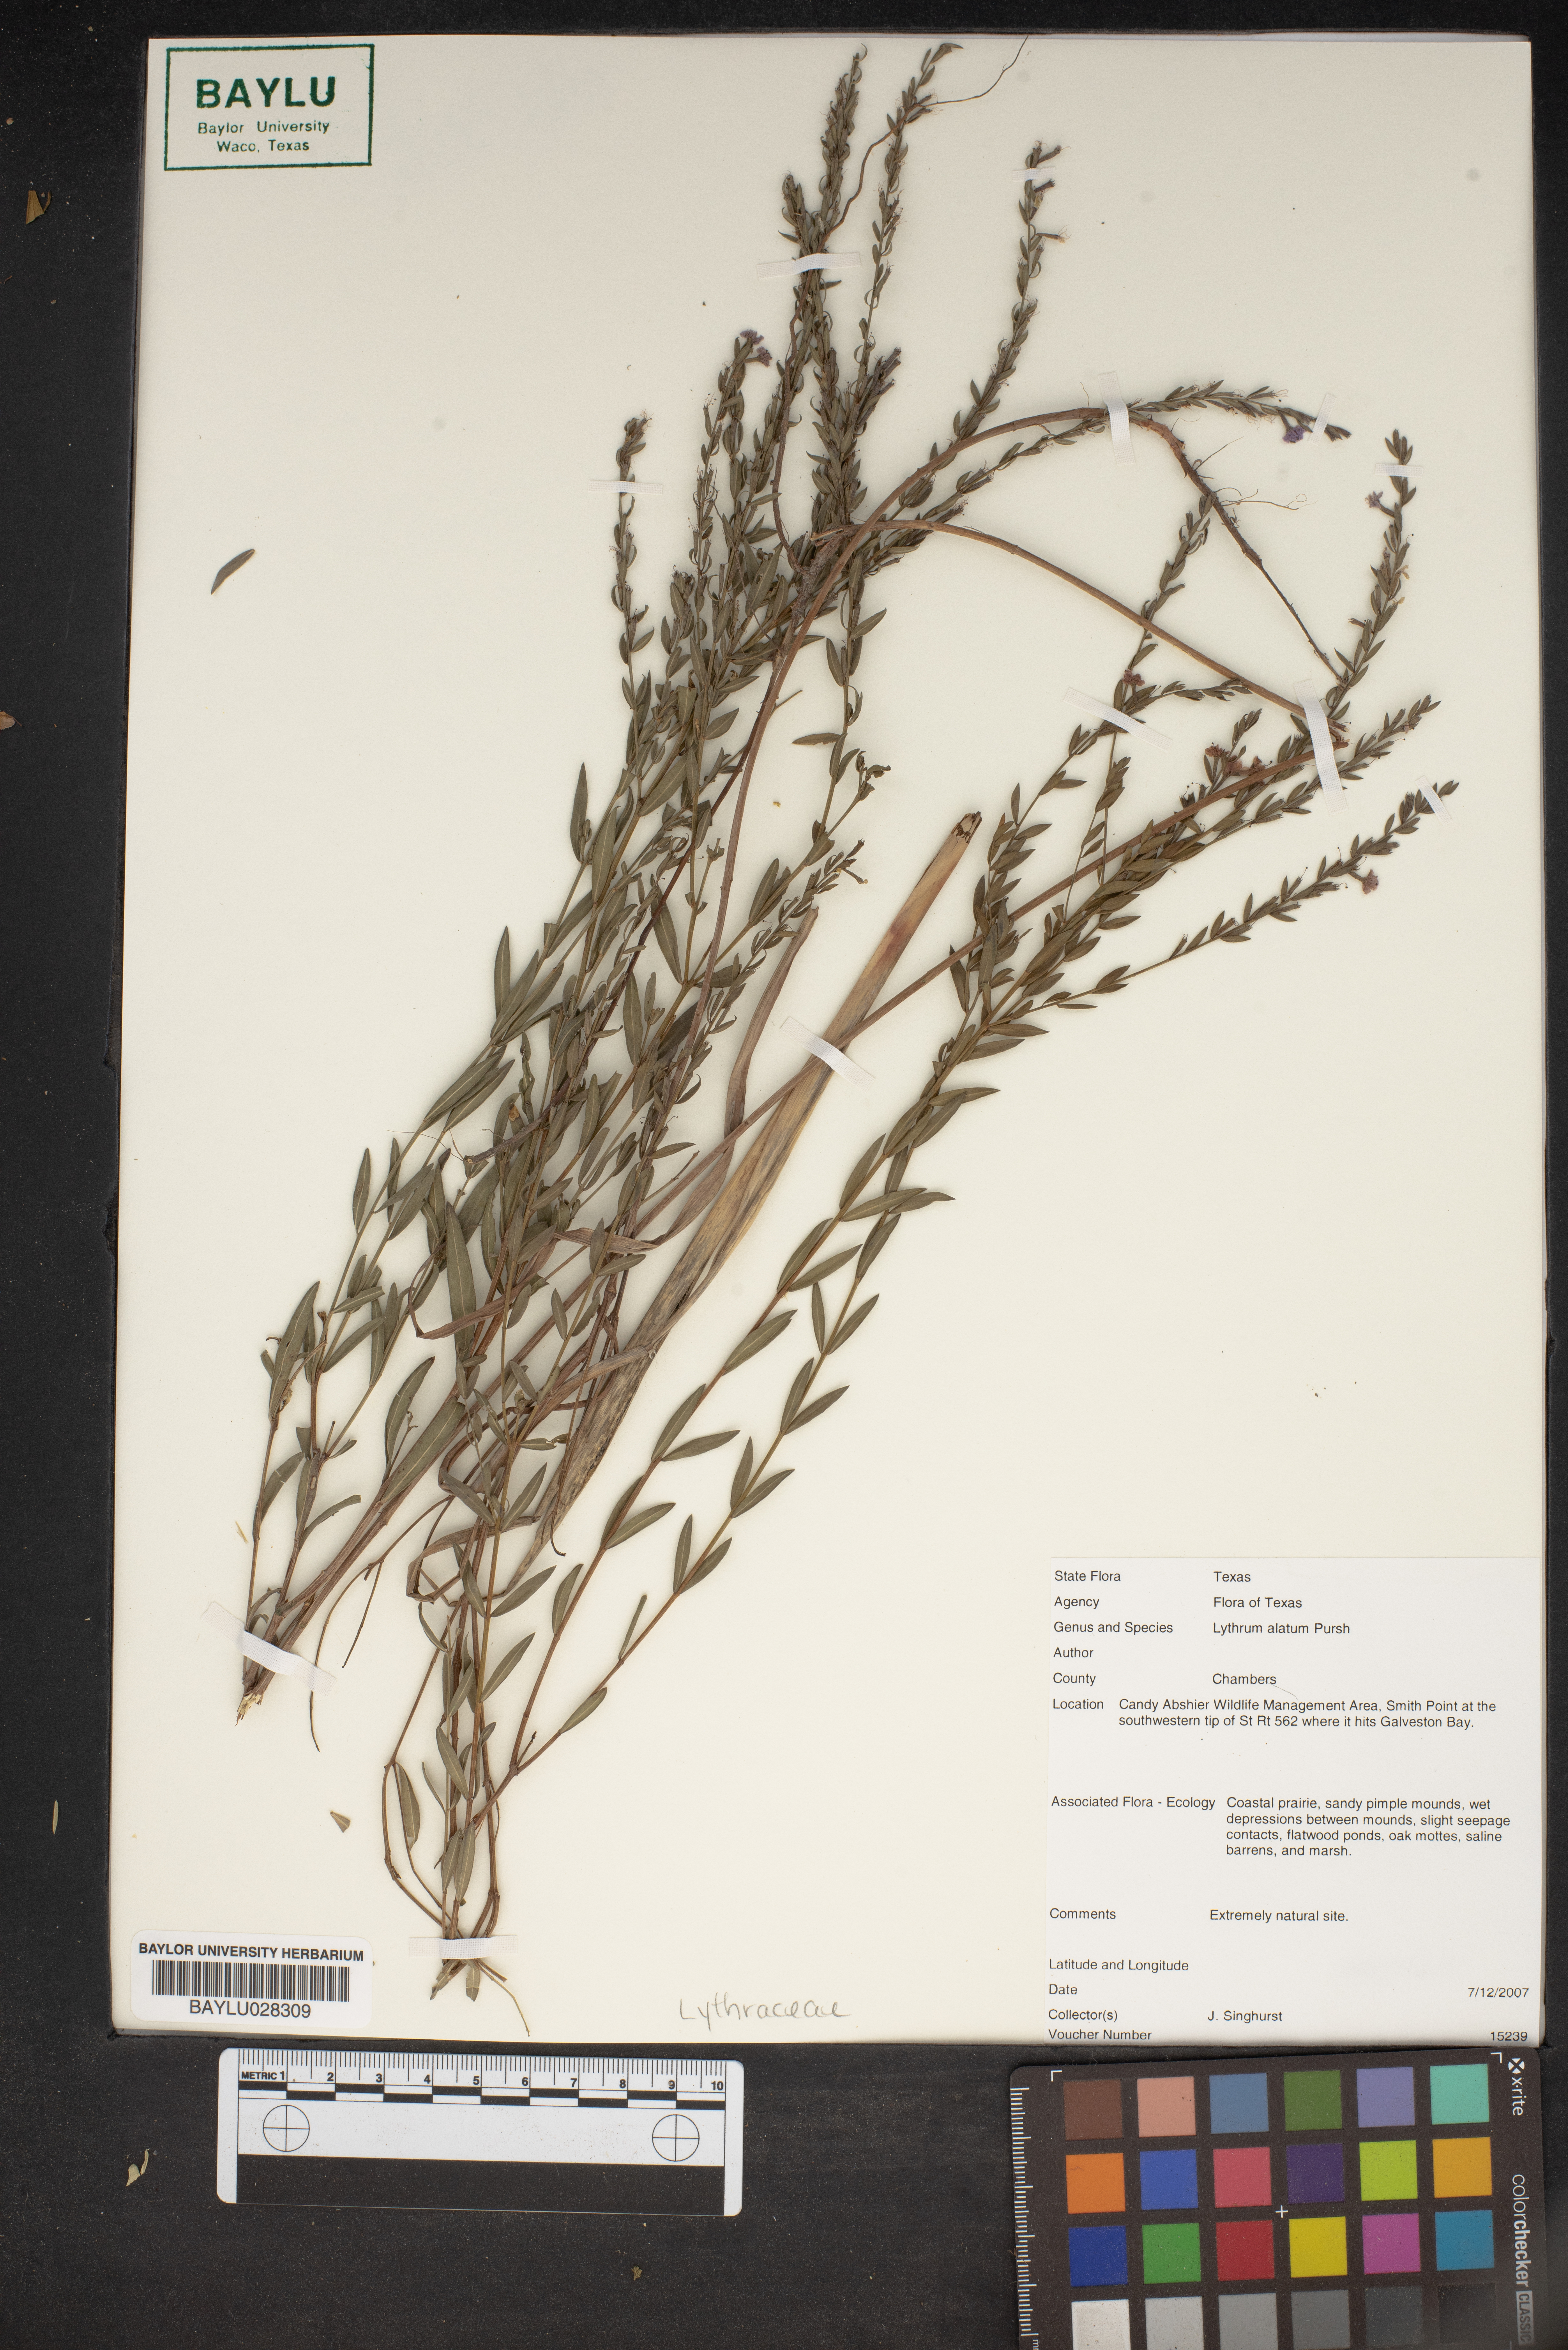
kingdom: Plantae
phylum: Tracheophyta
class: Magnoliopsida
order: Myrtales
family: Lythraceae
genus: Lythrum
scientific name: Lythrum alatum
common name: Winged loosestrife
